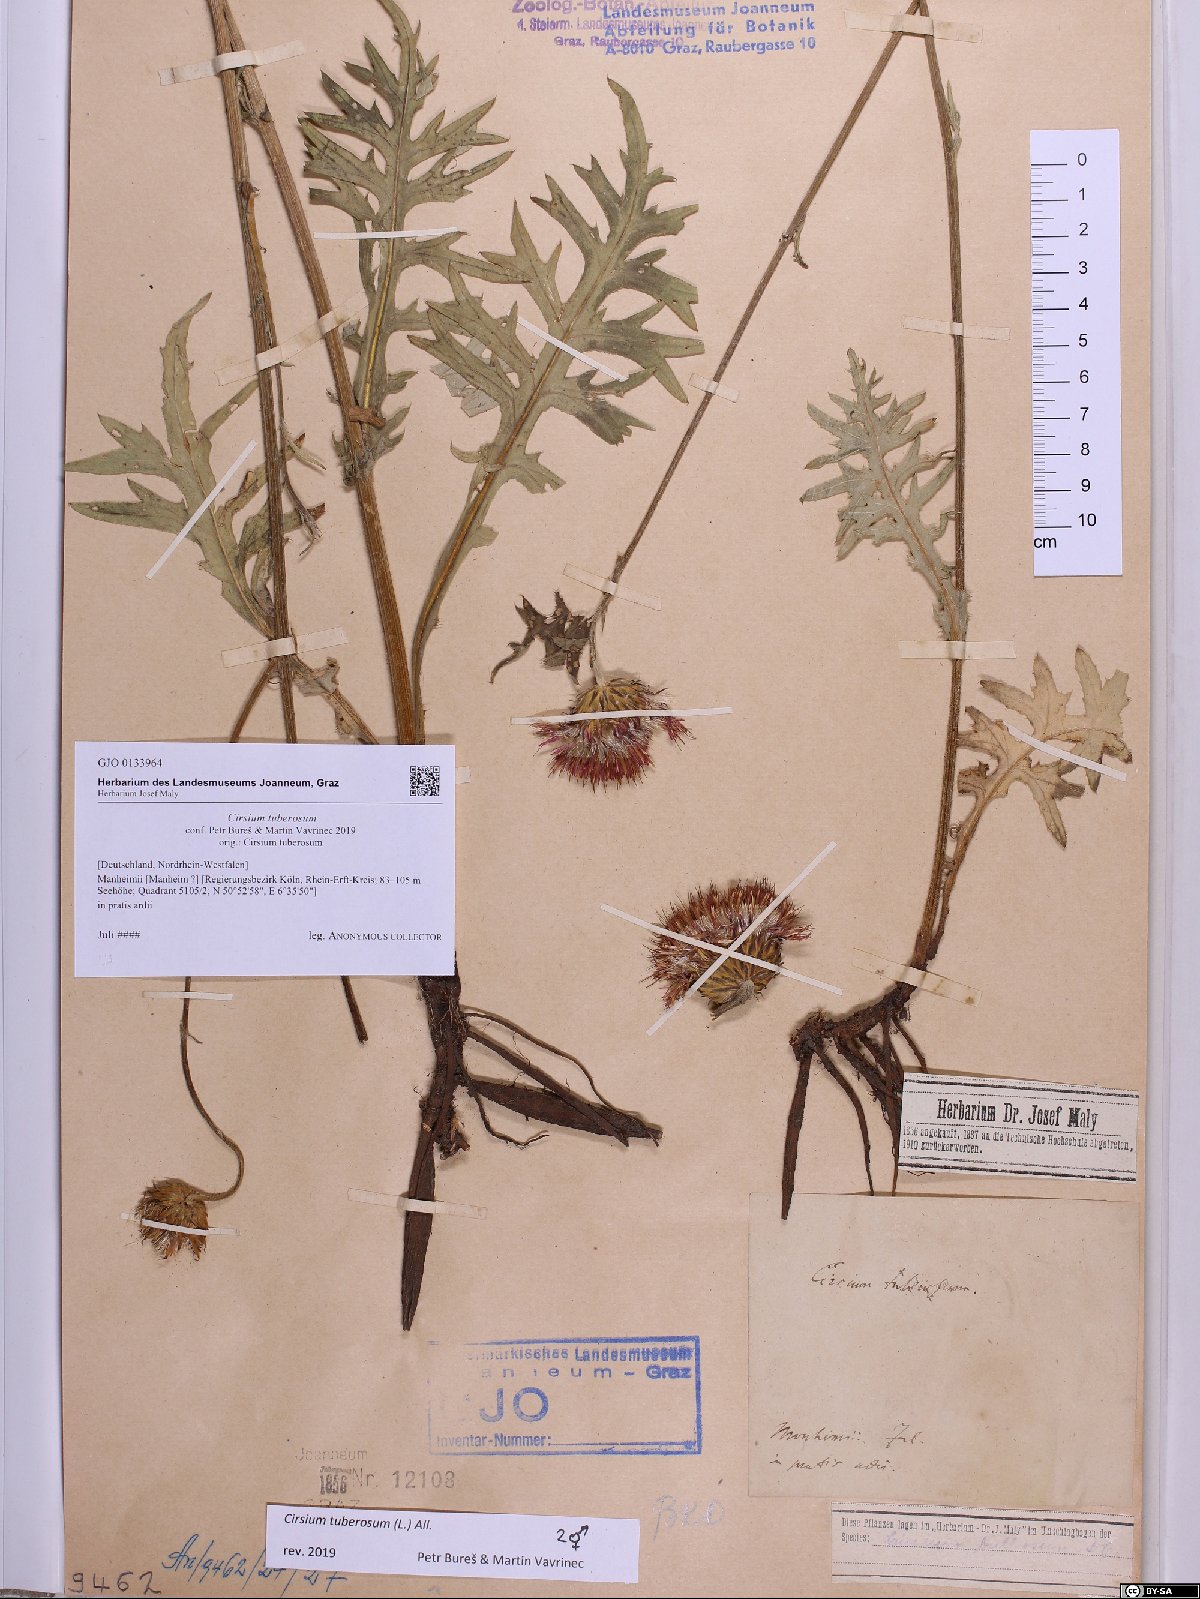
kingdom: Plantae
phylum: Tracheophyta
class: Magnoliopsida
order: Asterales
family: Asteraceae
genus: Cirsium
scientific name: Cirsium tuberosum
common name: Tuberous thistle
